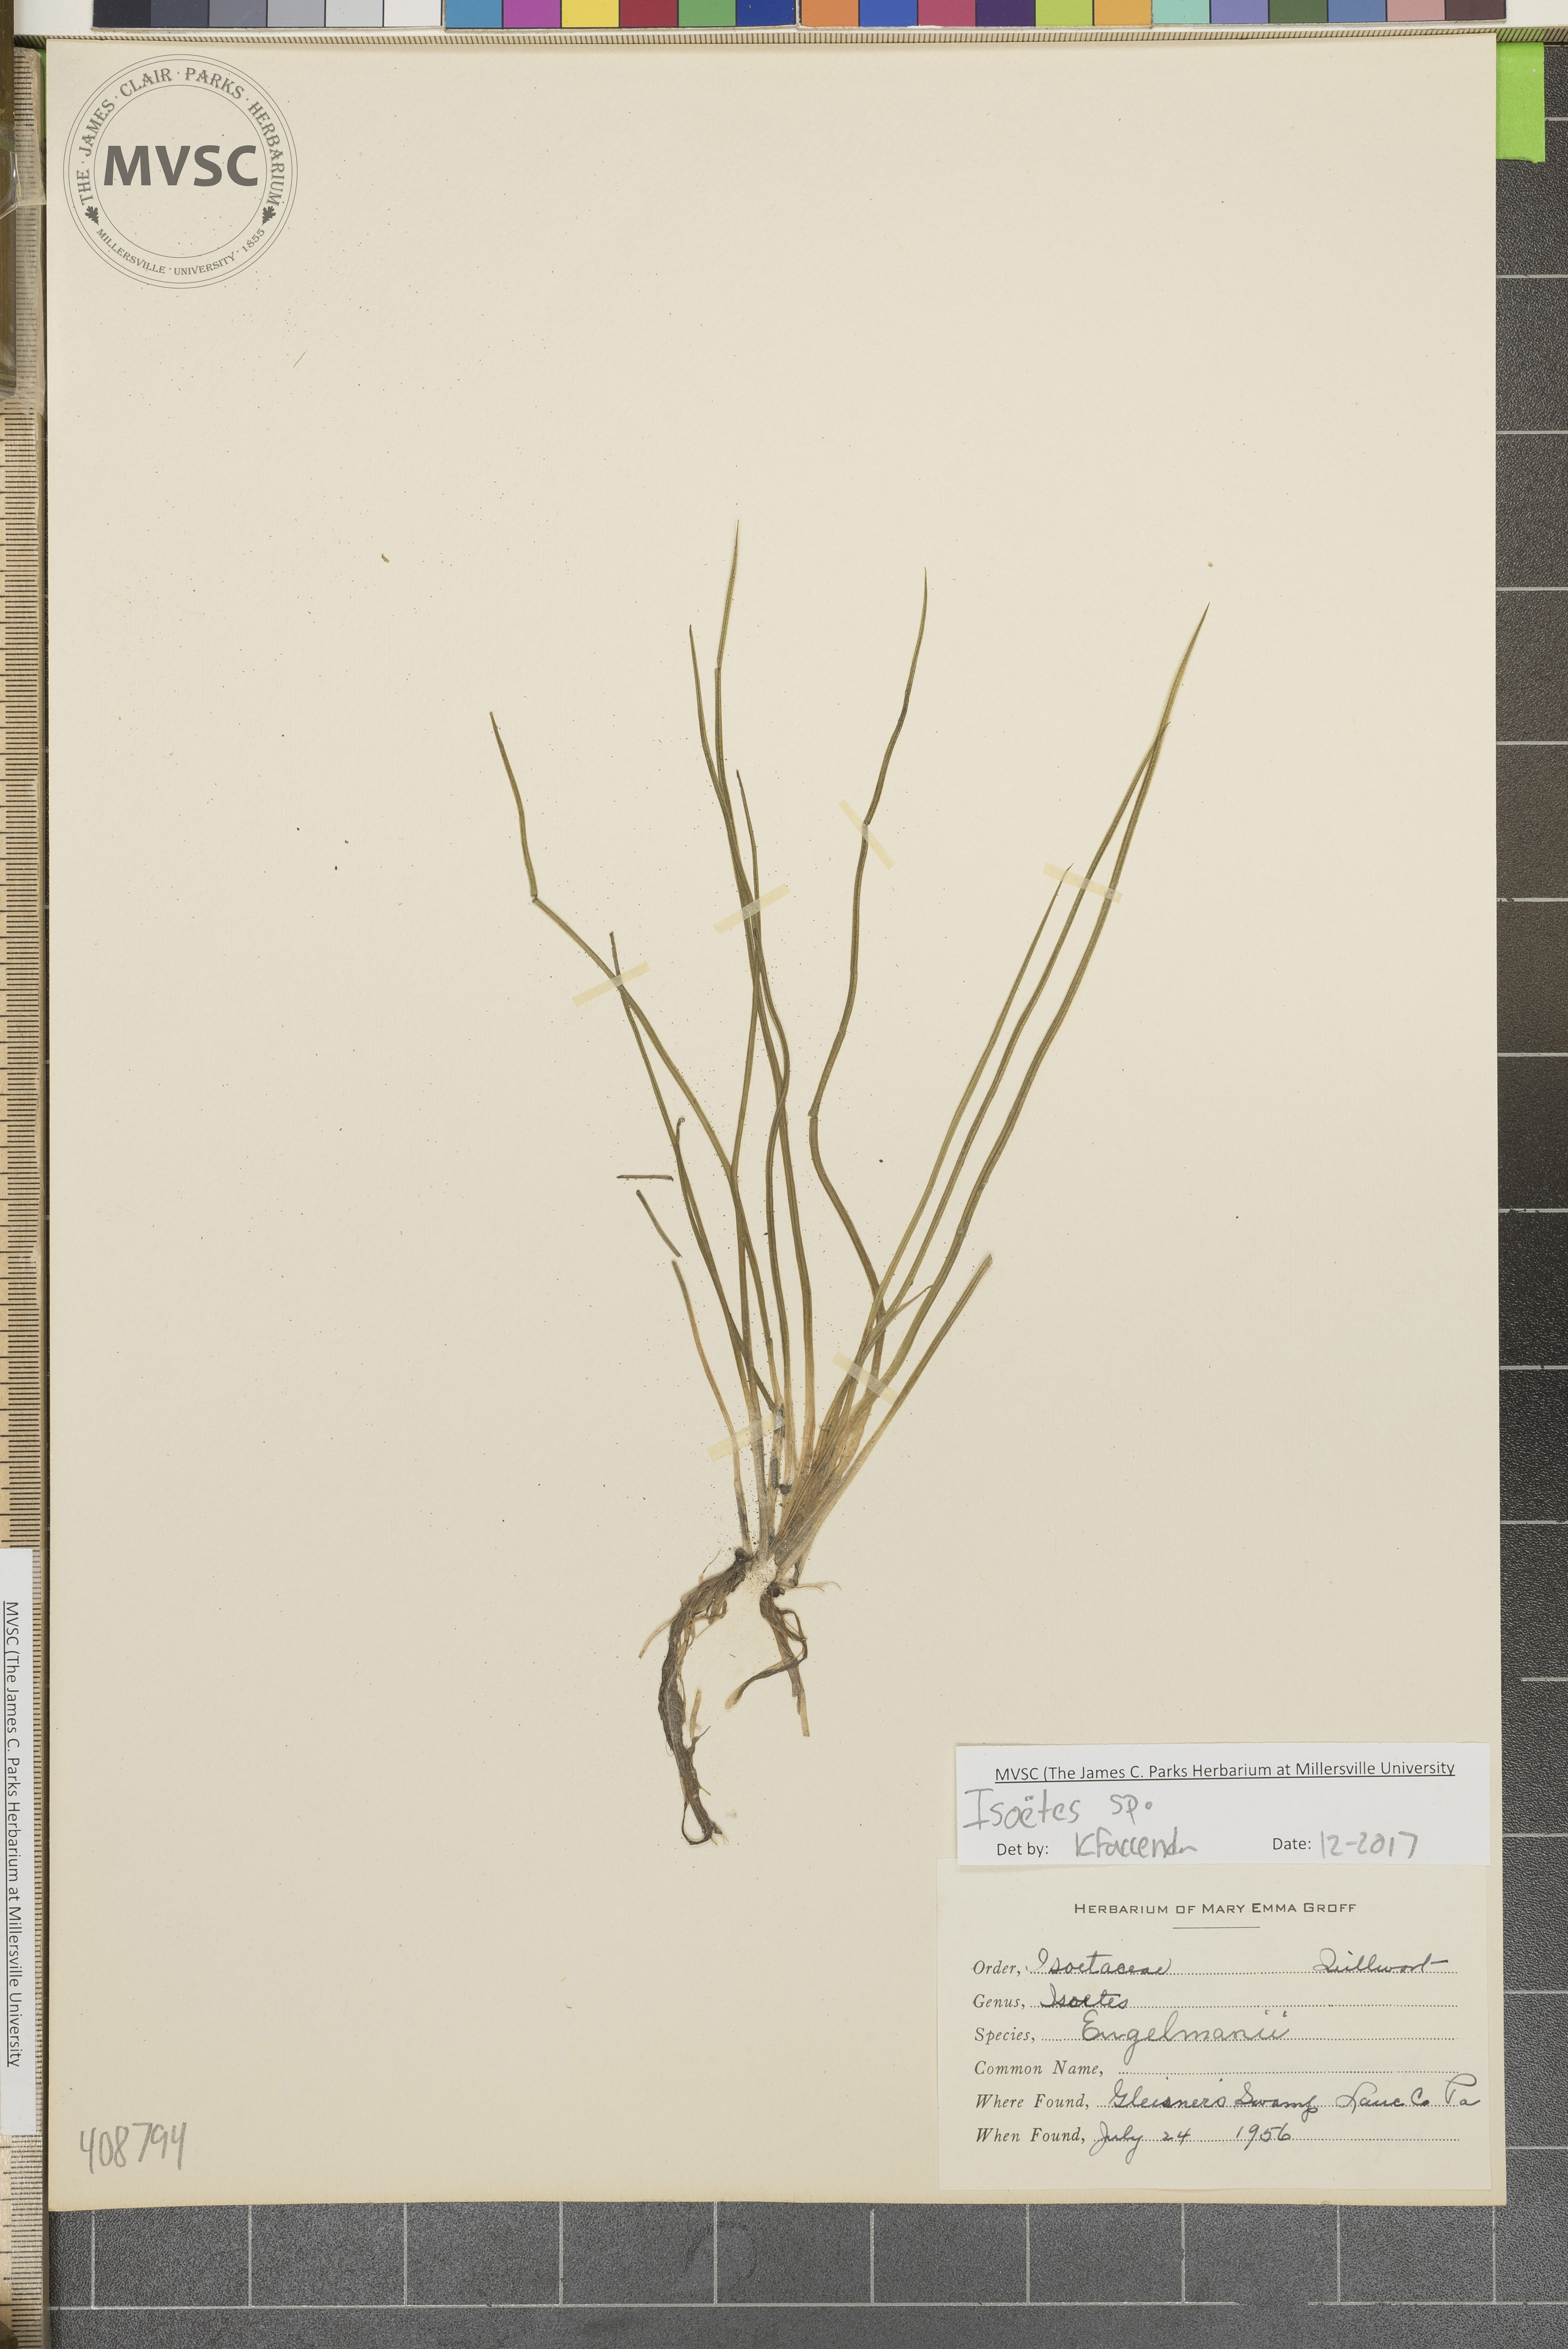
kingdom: Plantae
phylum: Tracheophyta
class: Lycopodiopsida
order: Isoetales
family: Isoetaceae
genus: Isoetes
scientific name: Isoetes
